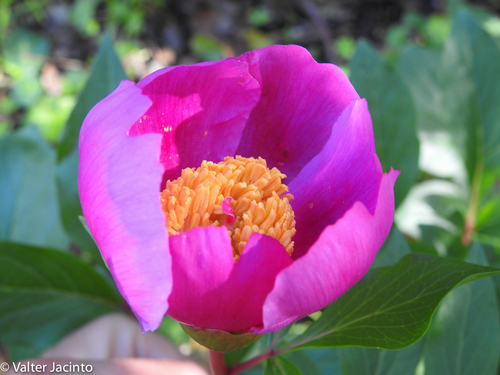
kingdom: Plantae
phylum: Tracheophyta
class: Magnoliopsida
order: Saxifragales
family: Paeoniaceae
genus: Paeonia
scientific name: Paeonia broteroi
